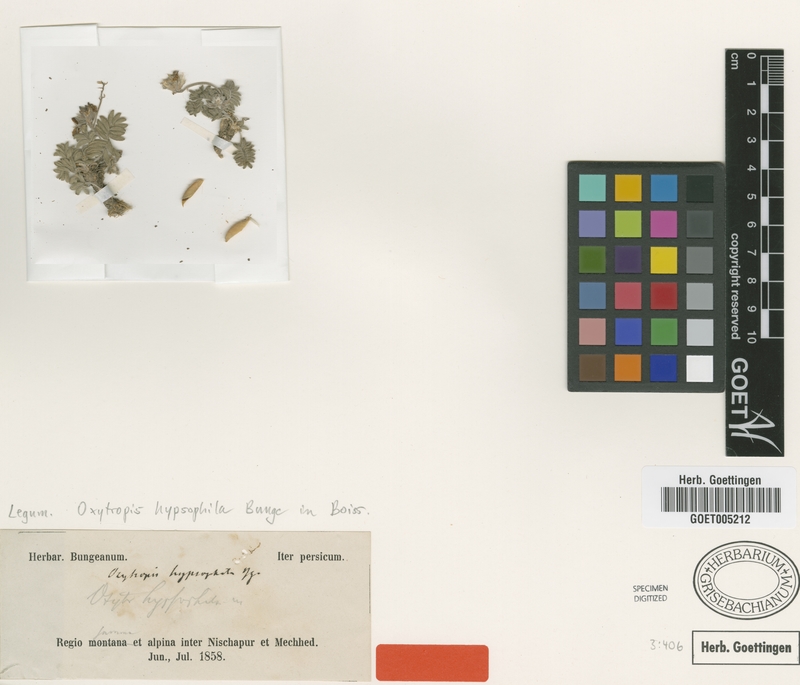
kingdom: Plantae
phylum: Tracheophyta
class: Magnoliopsida
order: Fabales
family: Fabaceae
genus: Oxytropis
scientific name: Oxytropis hypsophila
